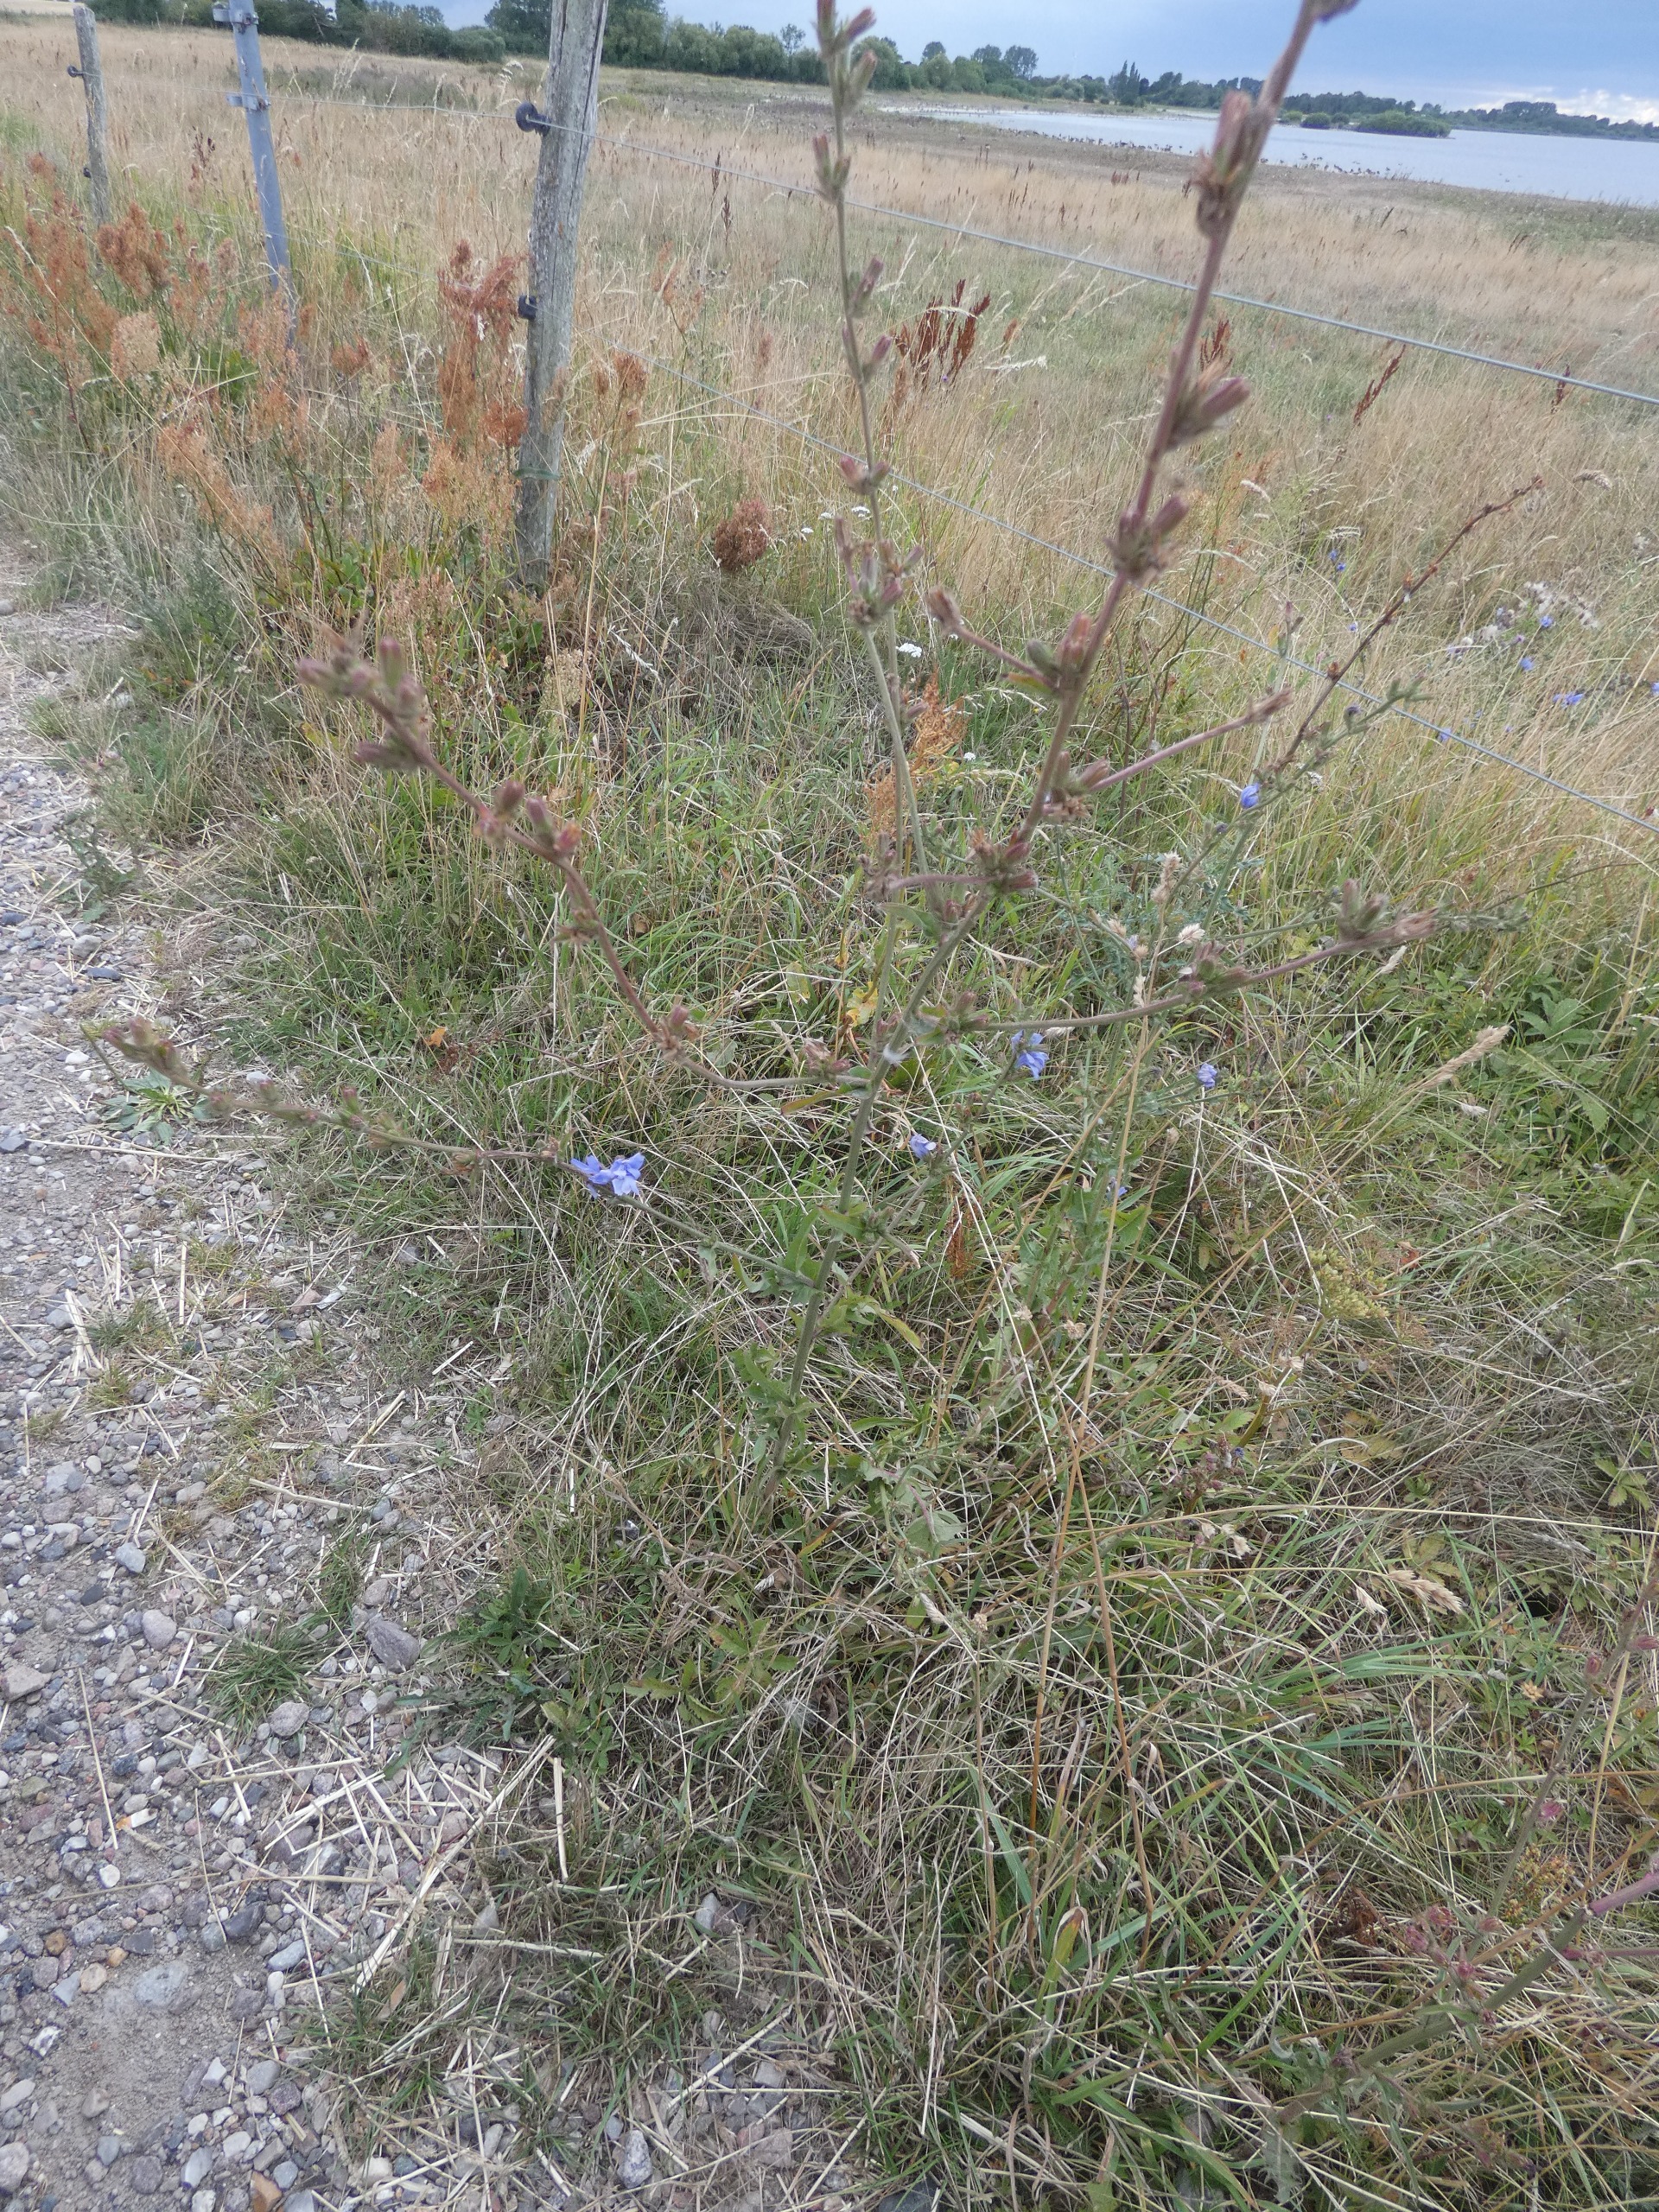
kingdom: Plantae
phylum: Tracheophyta
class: Magnoliopsida
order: Asterales
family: Asteraceae
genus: Cichorium
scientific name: Cichorium intybus
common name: Cikorie
